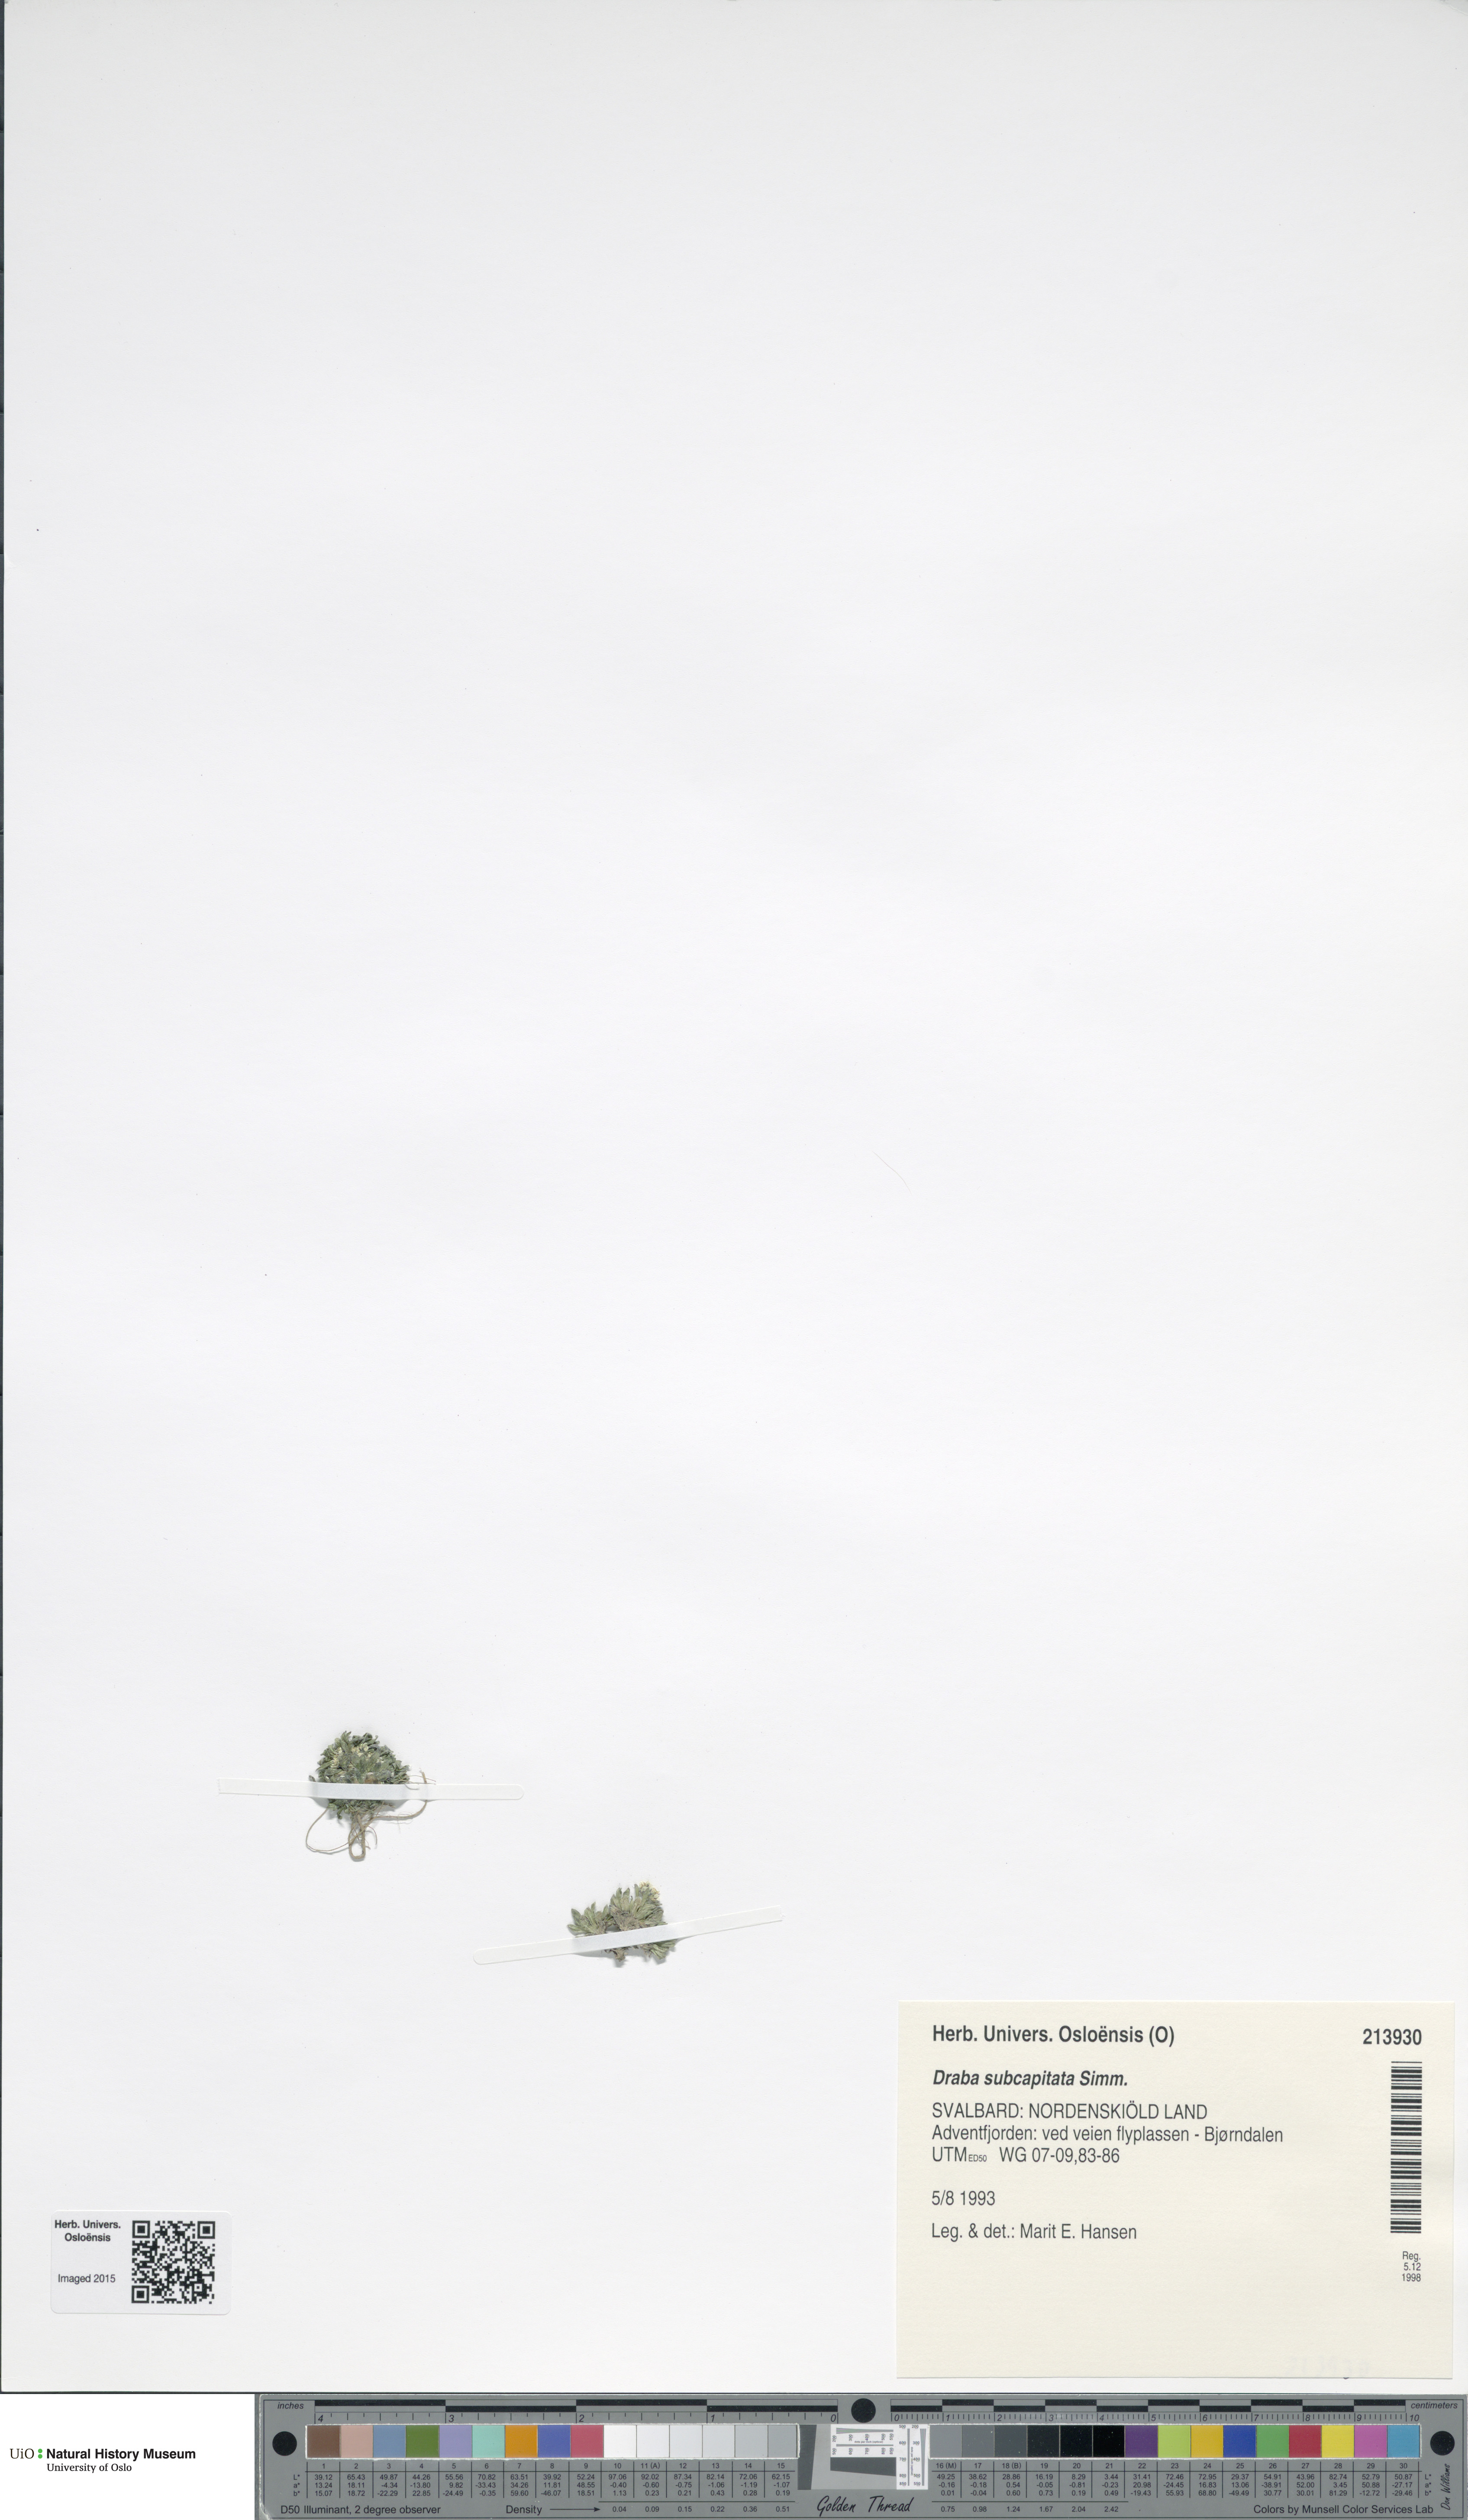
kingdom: Plantae
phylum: Tracheophyta
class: Magnoliopsida
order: Brassicales
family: Brassicaceae
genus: Draba
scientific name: Draba subcapitata
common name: Ellesmere island draba
